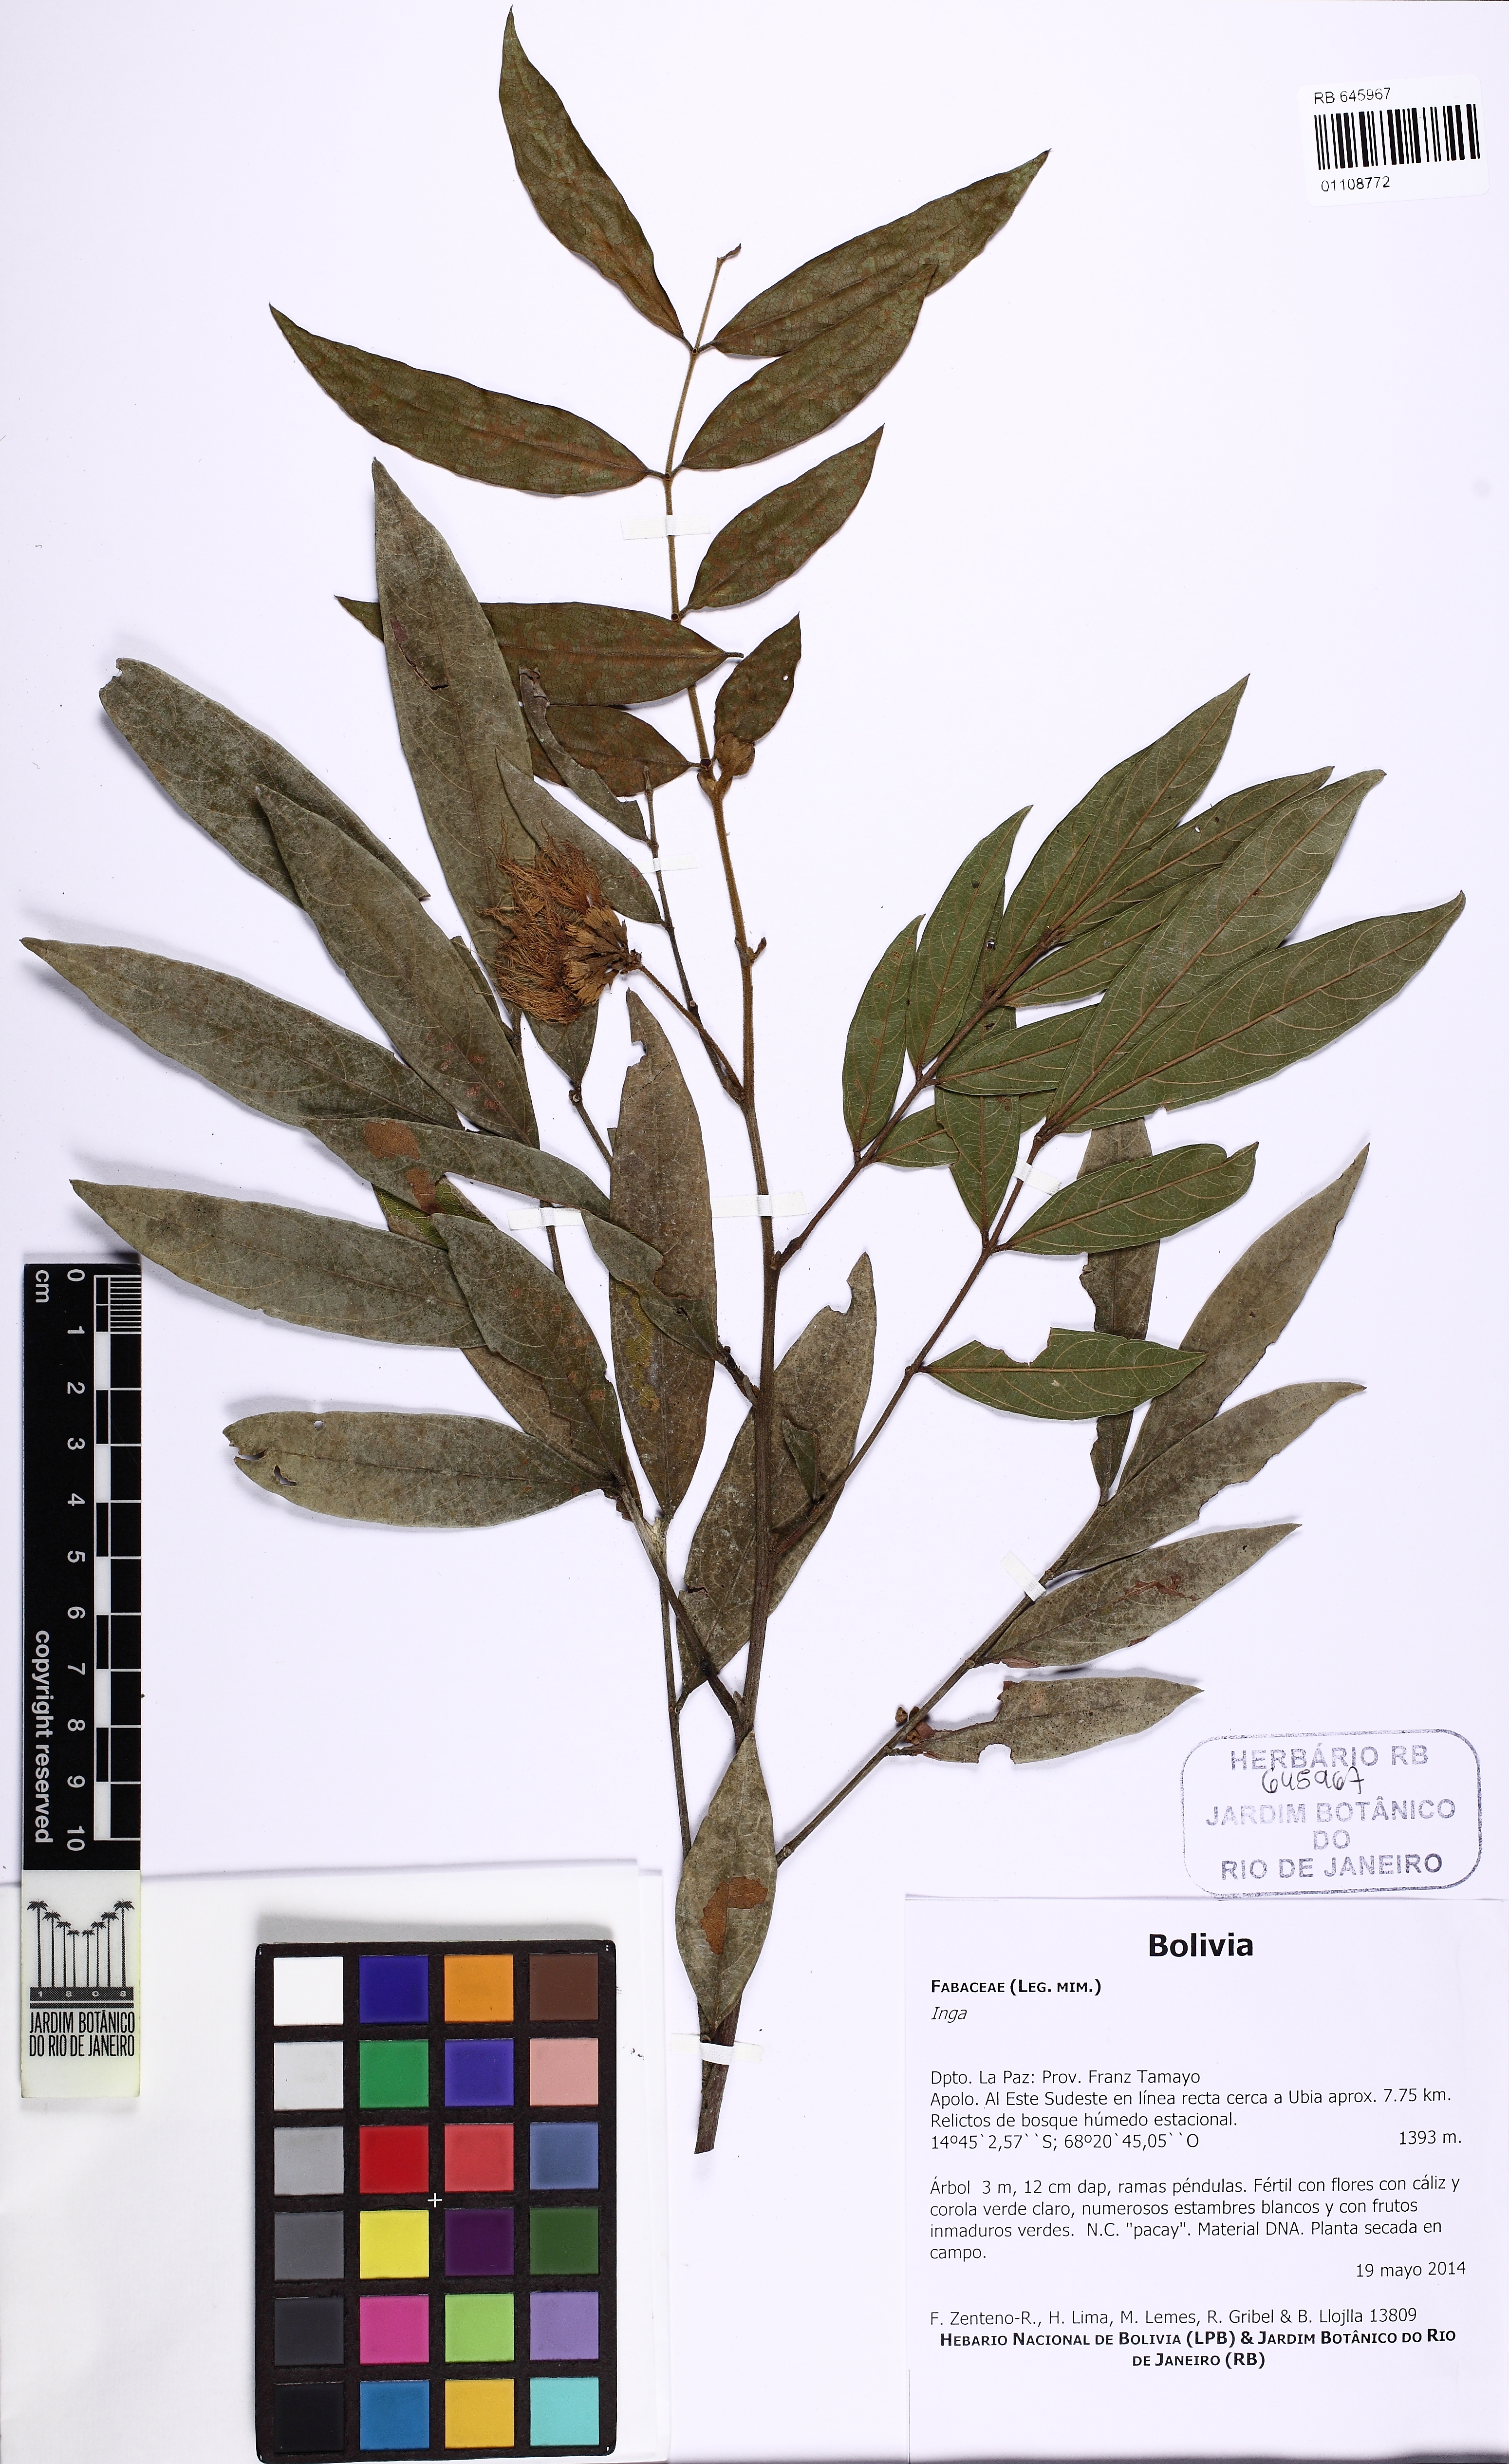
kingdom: Plantae
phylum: Tracheophyta
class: Magnoliopsida
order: Fabales
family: Fabaceae
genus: Inga
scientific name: Inga
